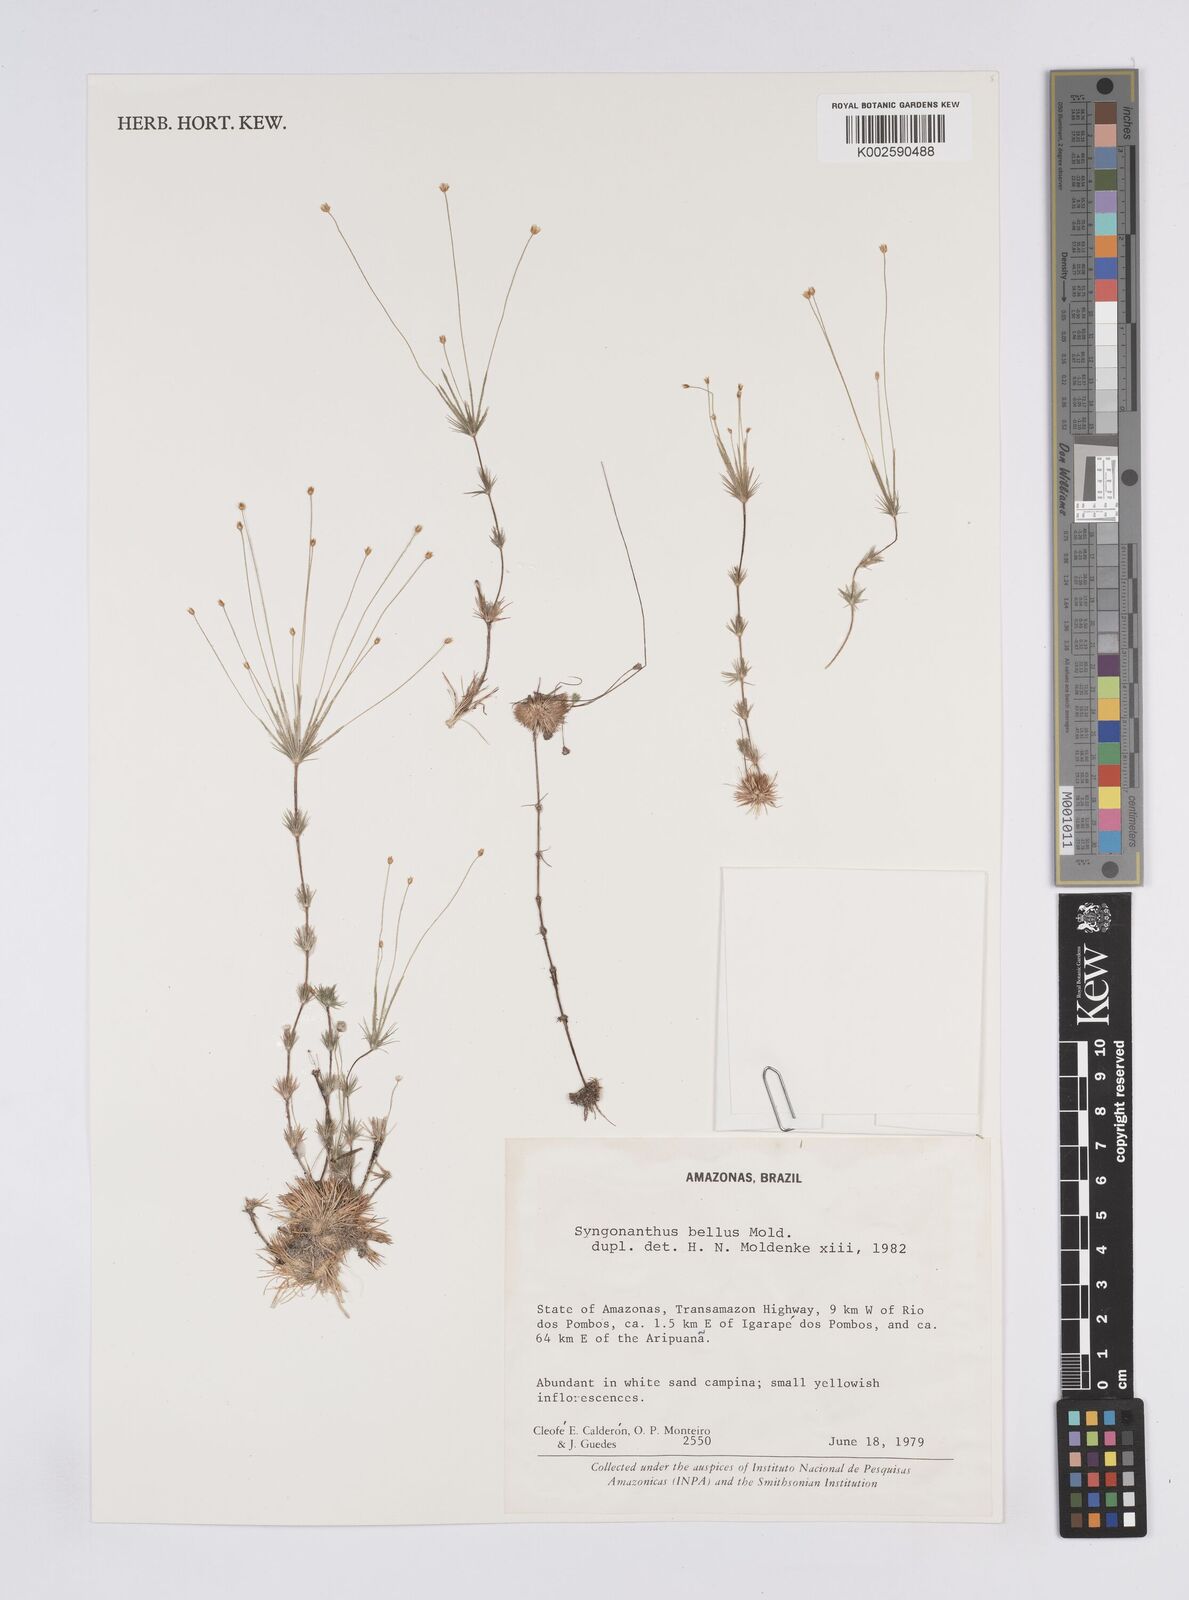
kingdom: Plantae
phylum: Tracheophyta
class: Liliopsida
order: Poales
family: Eriocaulaceae
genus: Syngonanthus
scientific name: Syngonanthus bellus
